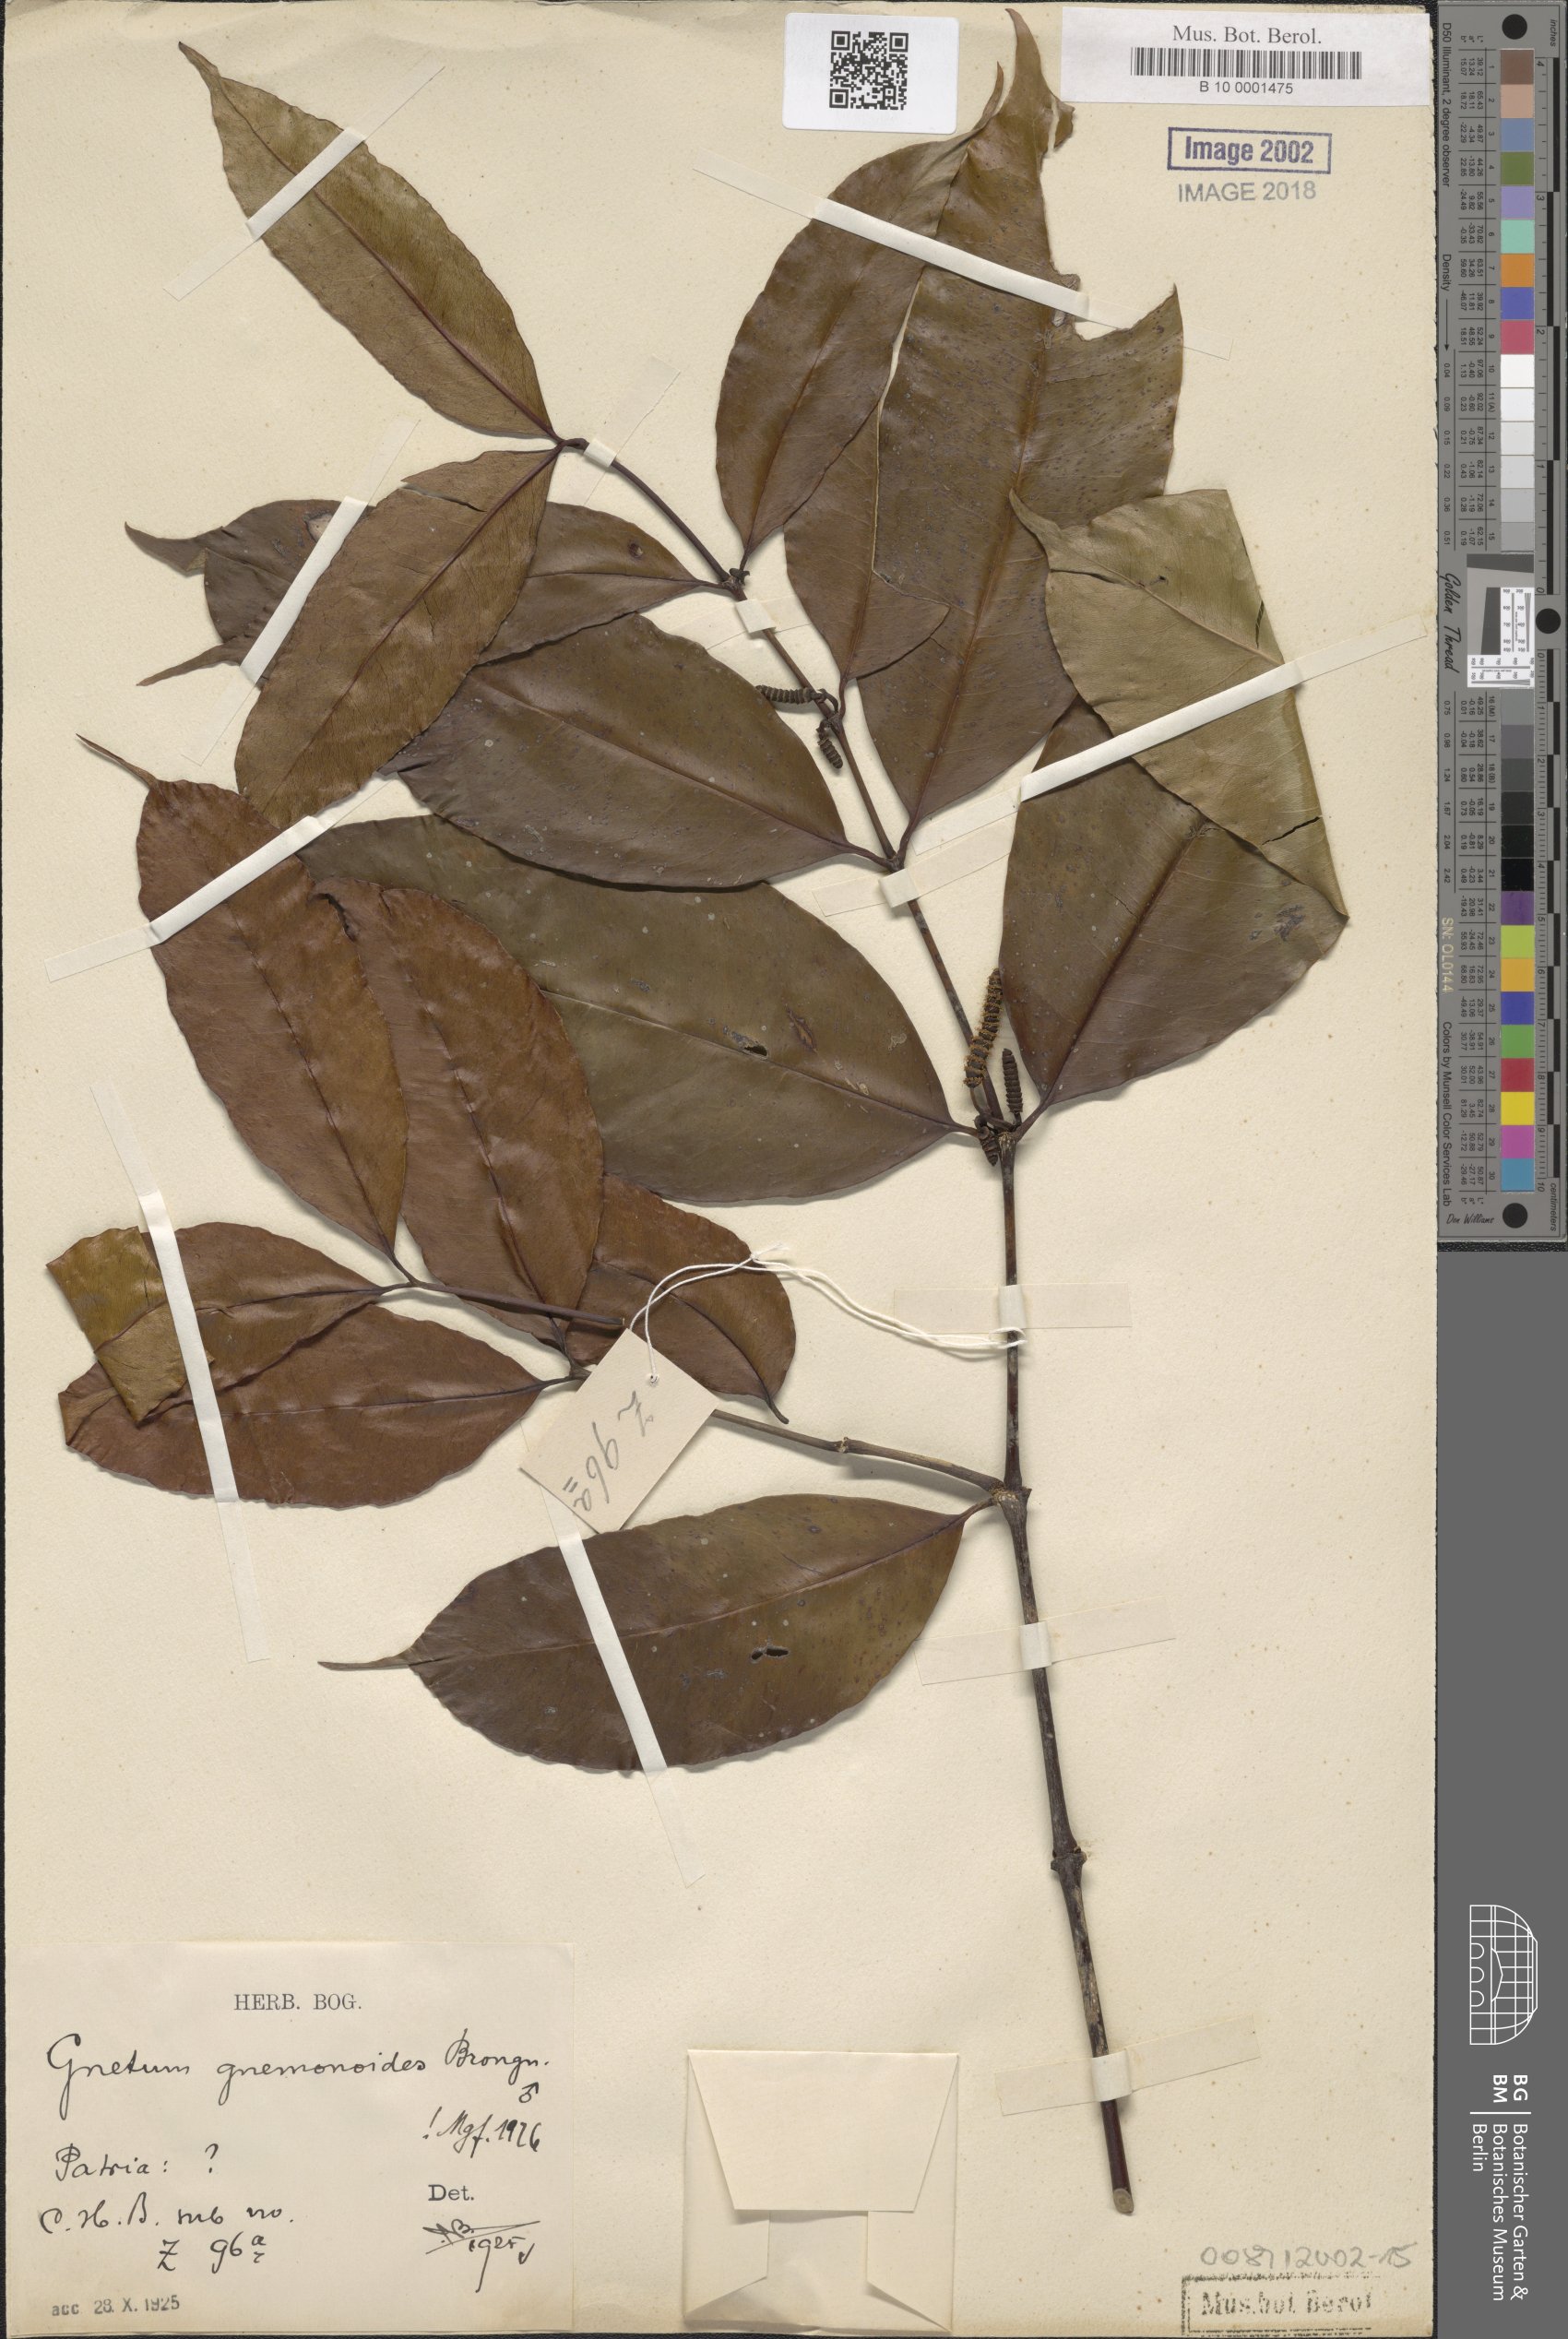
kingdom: Plantae
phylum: Tracheophyta
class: Gnetopsida
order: Gnetales
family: Gnetaceae
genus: Gnetum
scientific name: Gnetum gnemonoides
